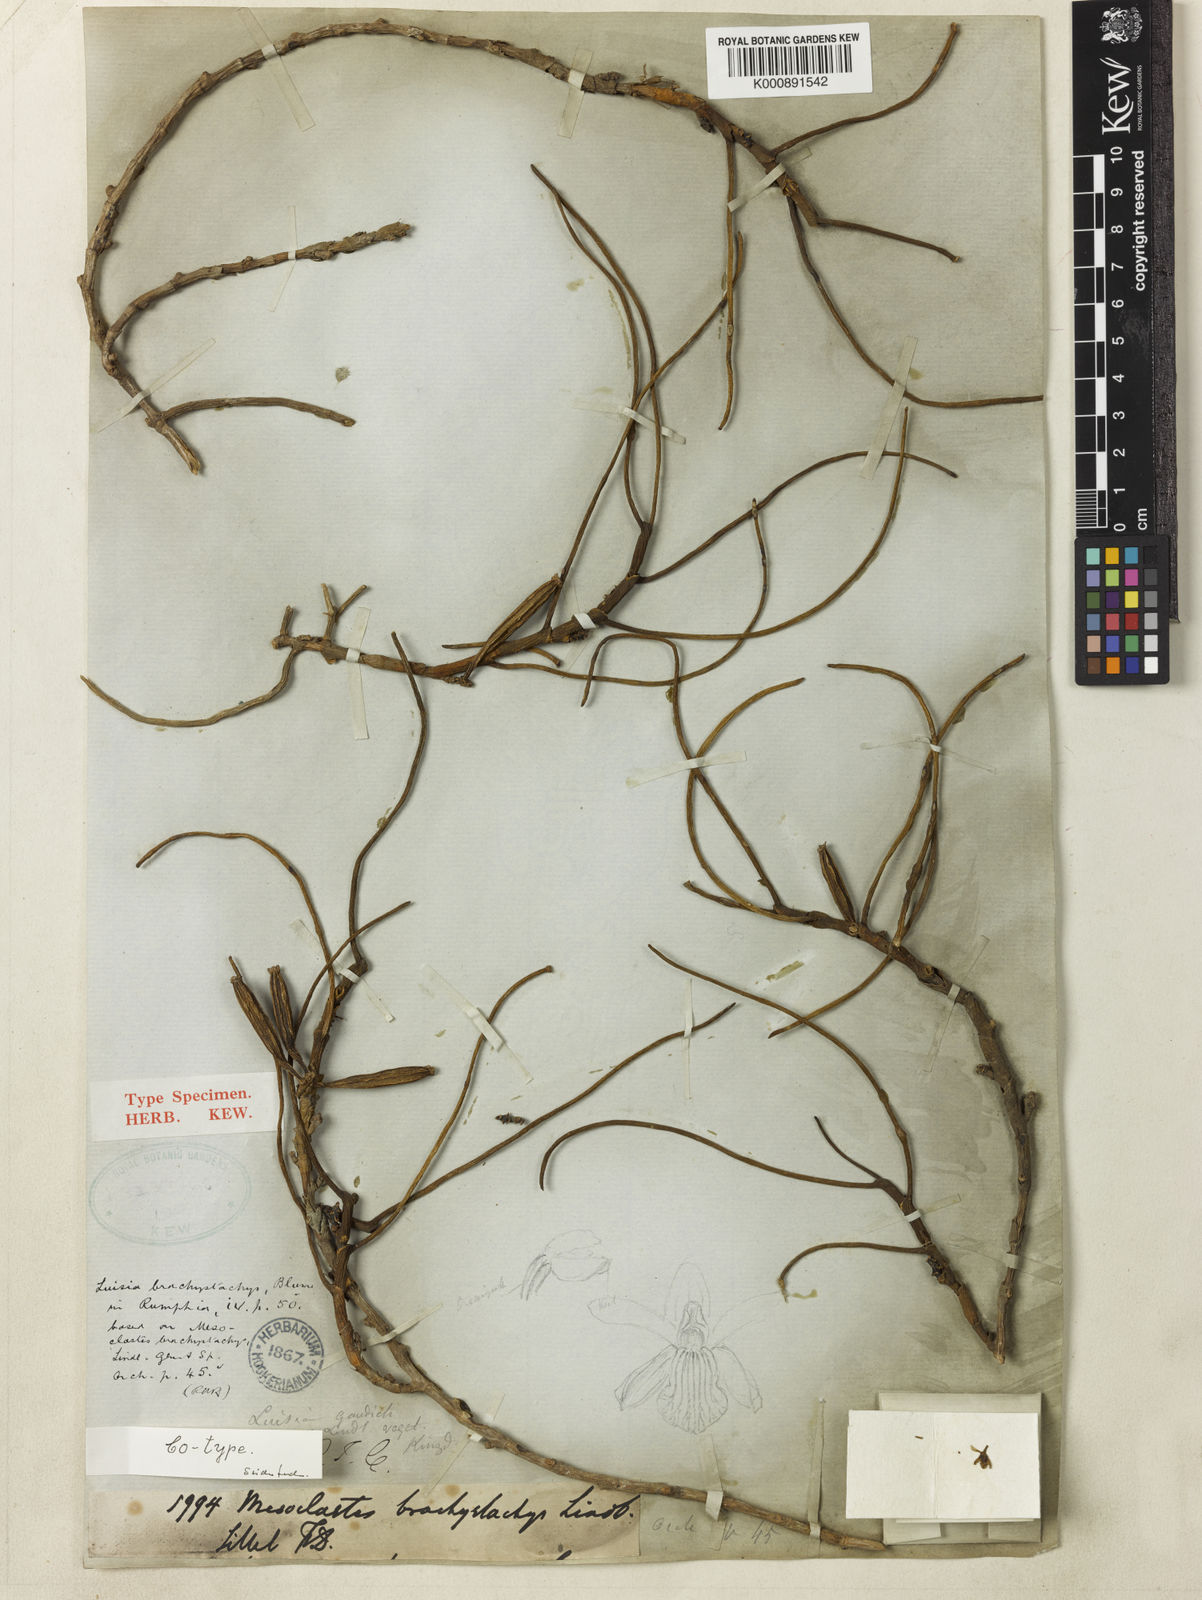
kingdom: Plantae
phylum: Tracheophyta
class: Liliopsida
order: Asparagales
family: Orchidaceae
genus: Luisia
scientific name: Luisia brachystachys
